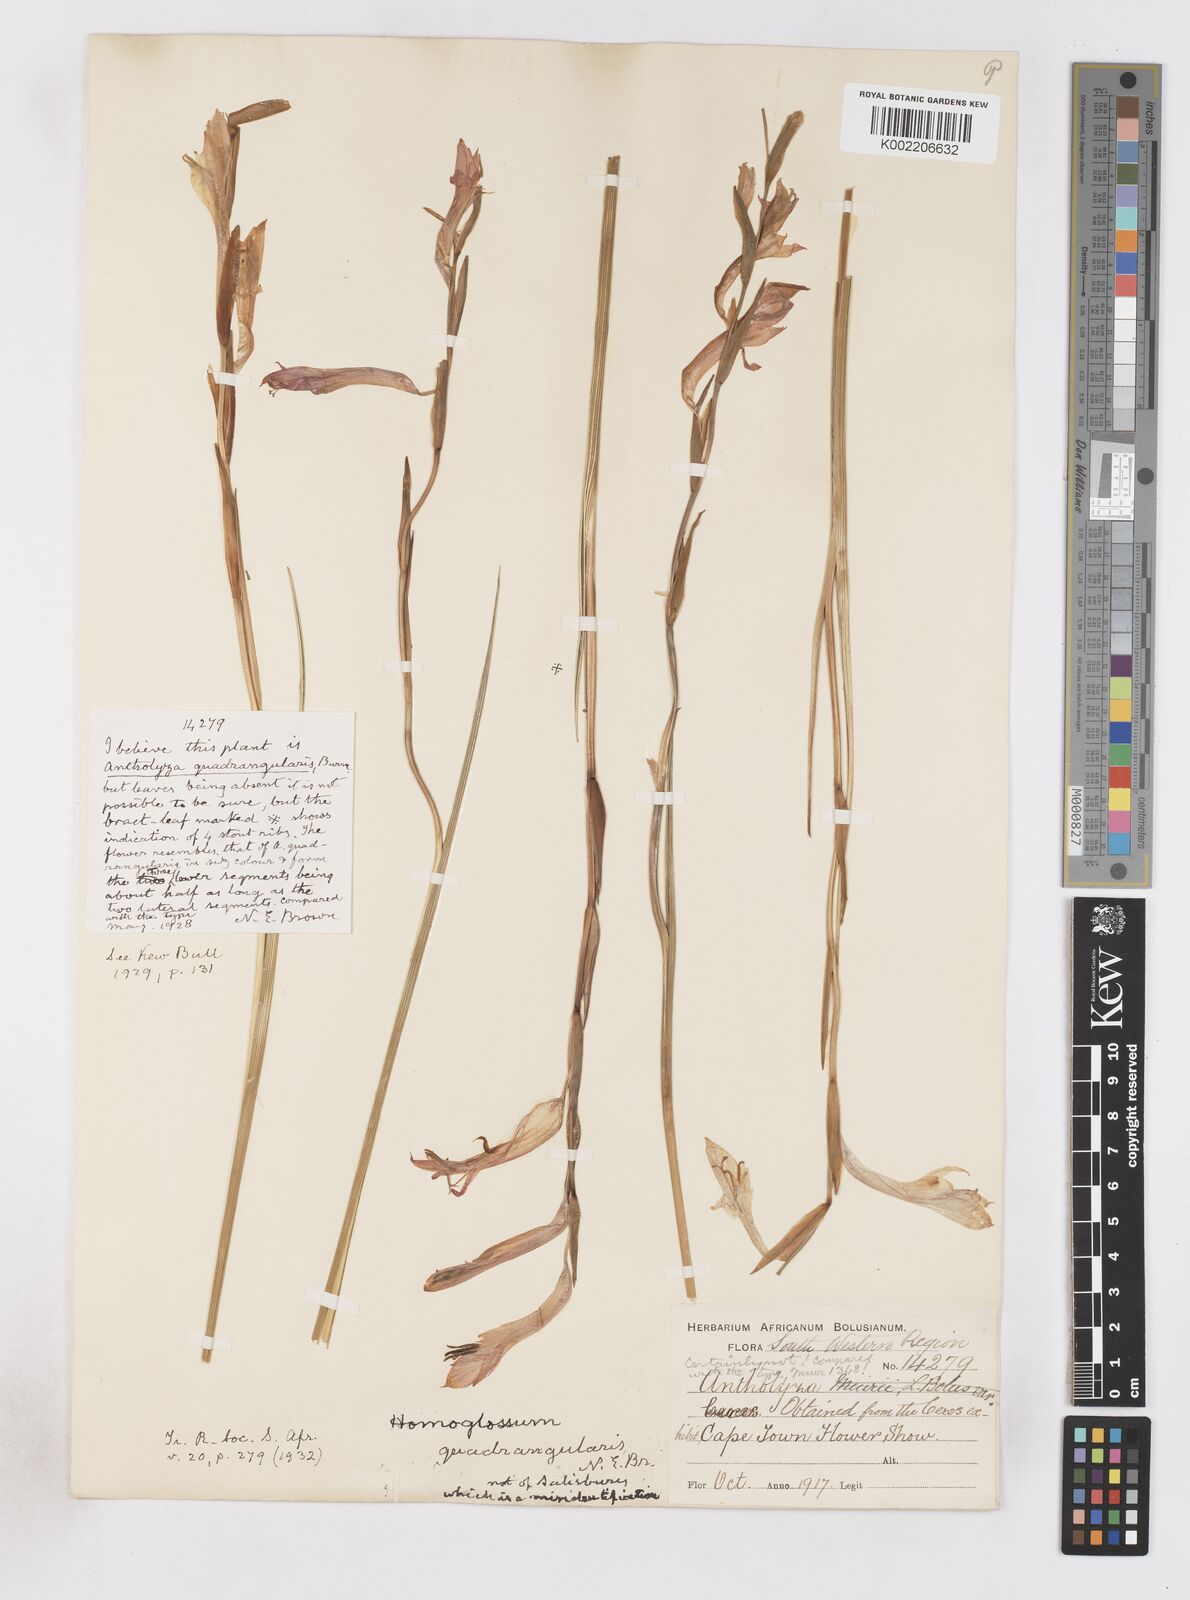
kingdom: Plantae
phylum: Tracheophyta
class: Liliopsida
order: Asparagales
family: Iridaceae
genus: Gladiolus
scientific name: Gladiolus quadrangularis
